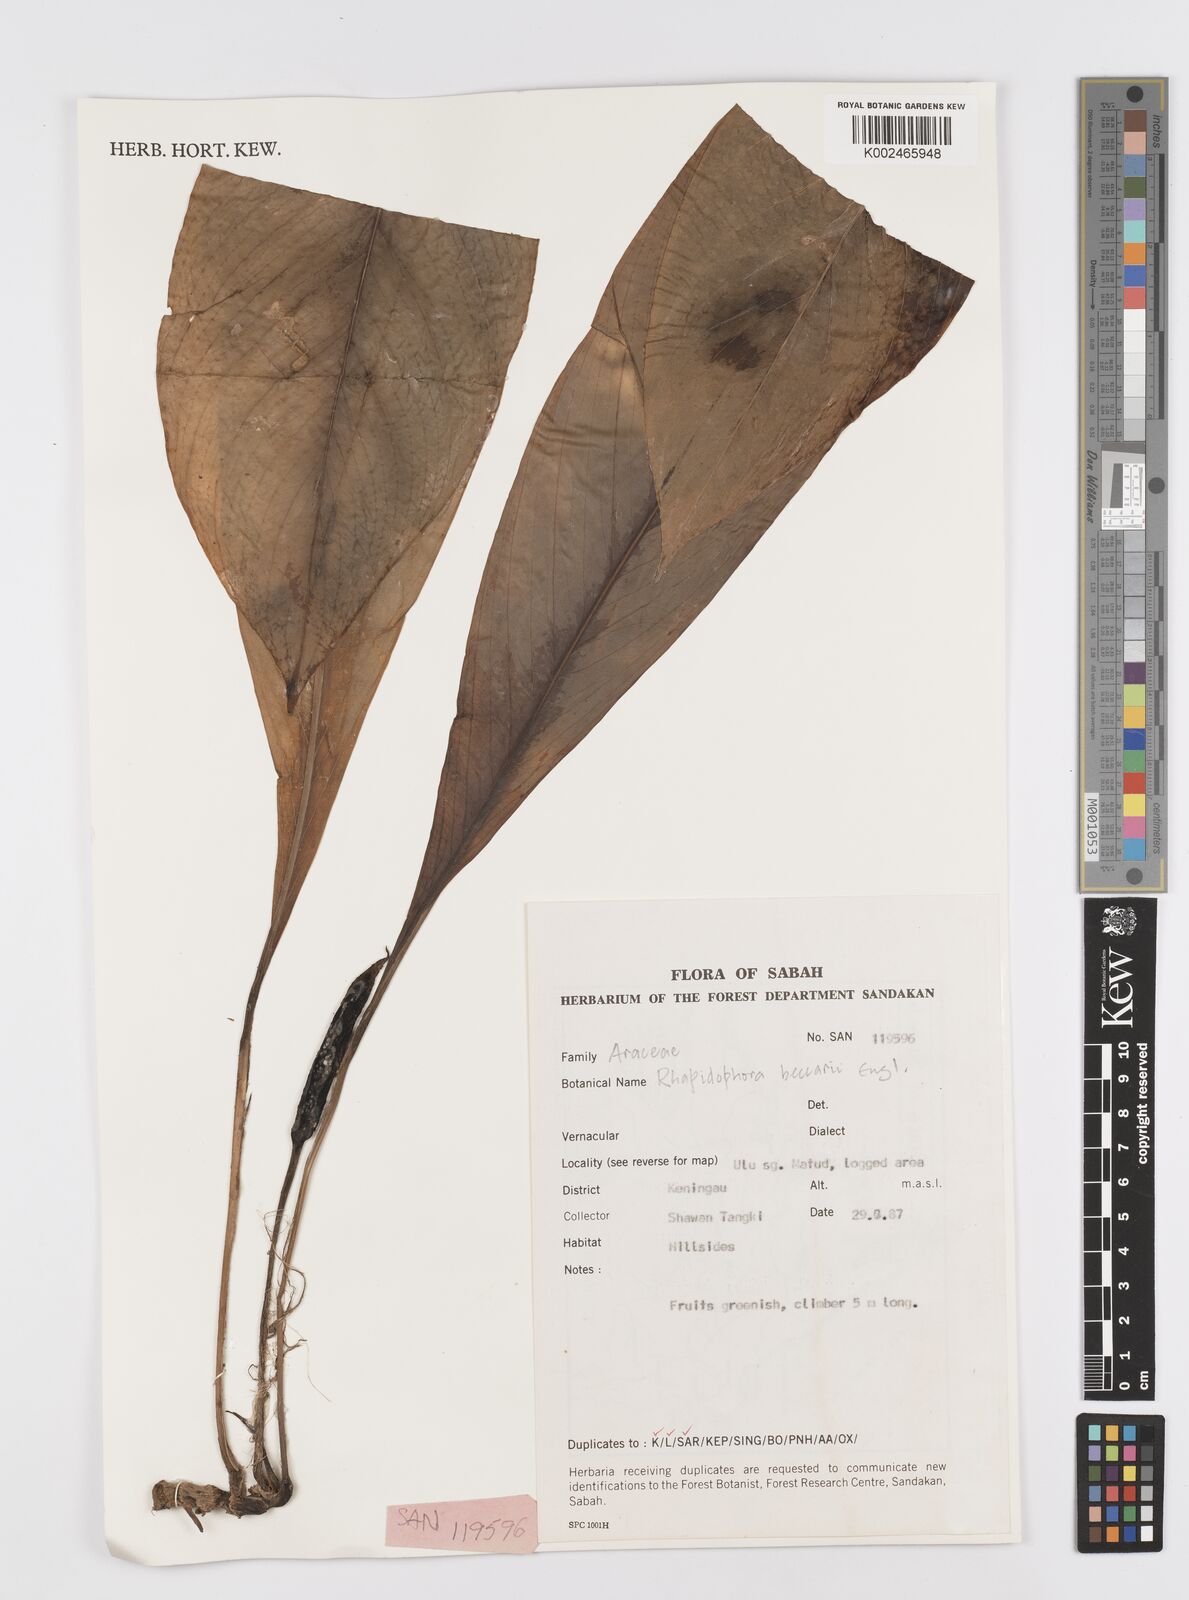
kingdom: Plantae
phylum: Tracheophyta
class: Liliopsida
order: Alismatales
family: Araceae
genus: Rhaphidophora
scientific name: Rhaphidophora beccarii
